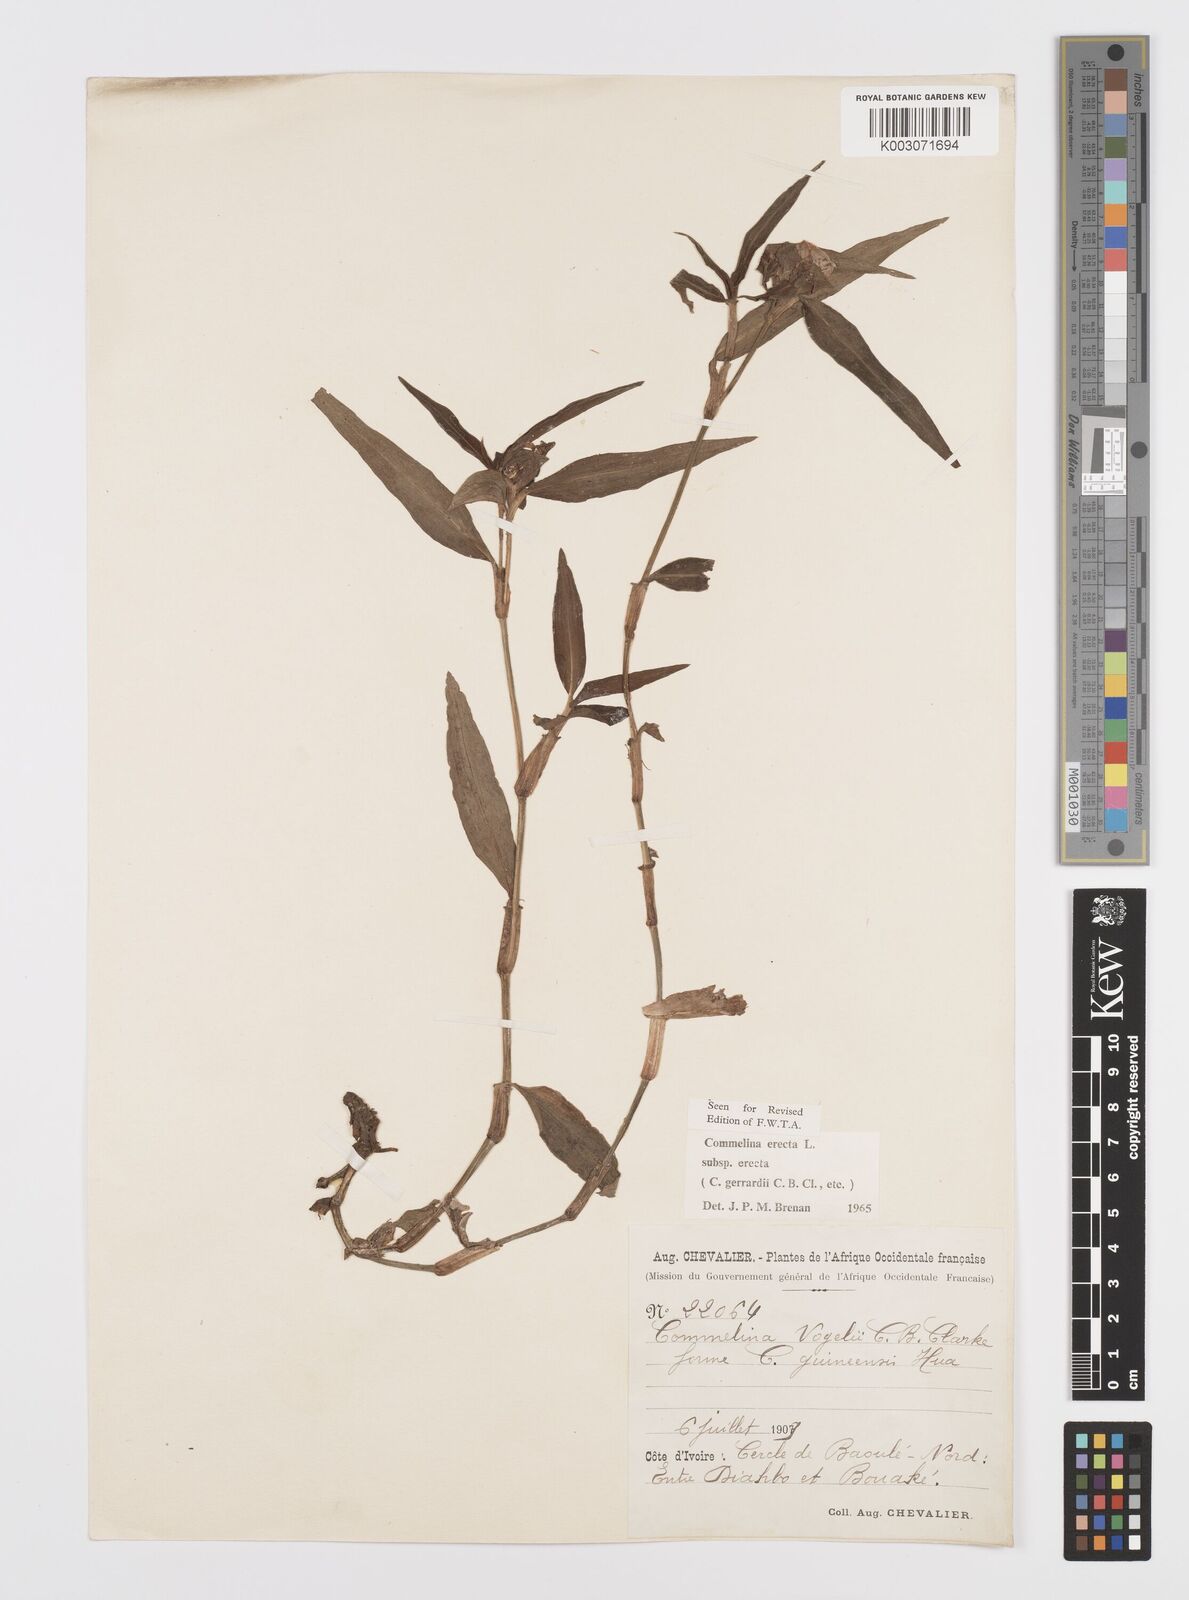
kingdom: Plantae
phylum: Tracheophyta
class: Liliopsida
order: Commelinales
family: Commelinaceae
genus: Commelina
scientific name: Commelina erecta
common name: Blousel blommetjie
